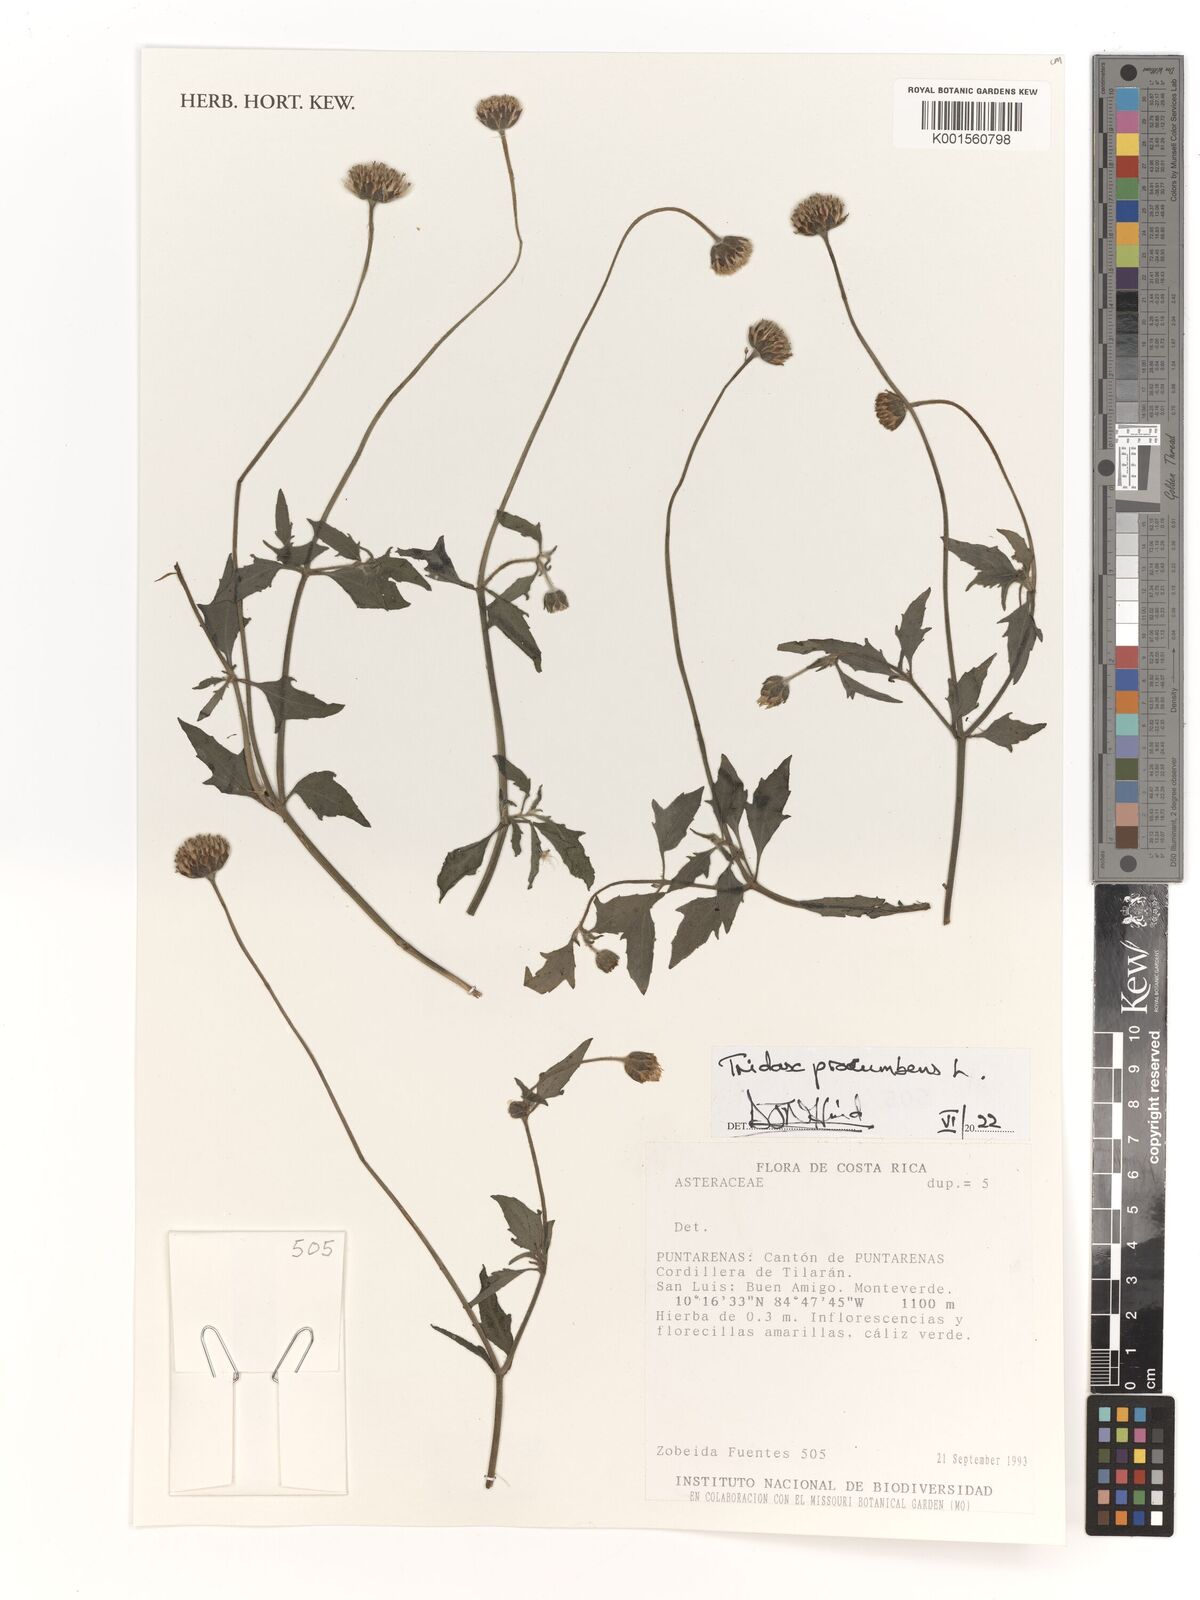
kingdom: Plantae
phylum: Tracheophyta
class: Magnoliopsida
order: Asterales
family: Asteraceae
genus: Tridax
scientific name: Tridax procumbens
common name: Coatbuttons
